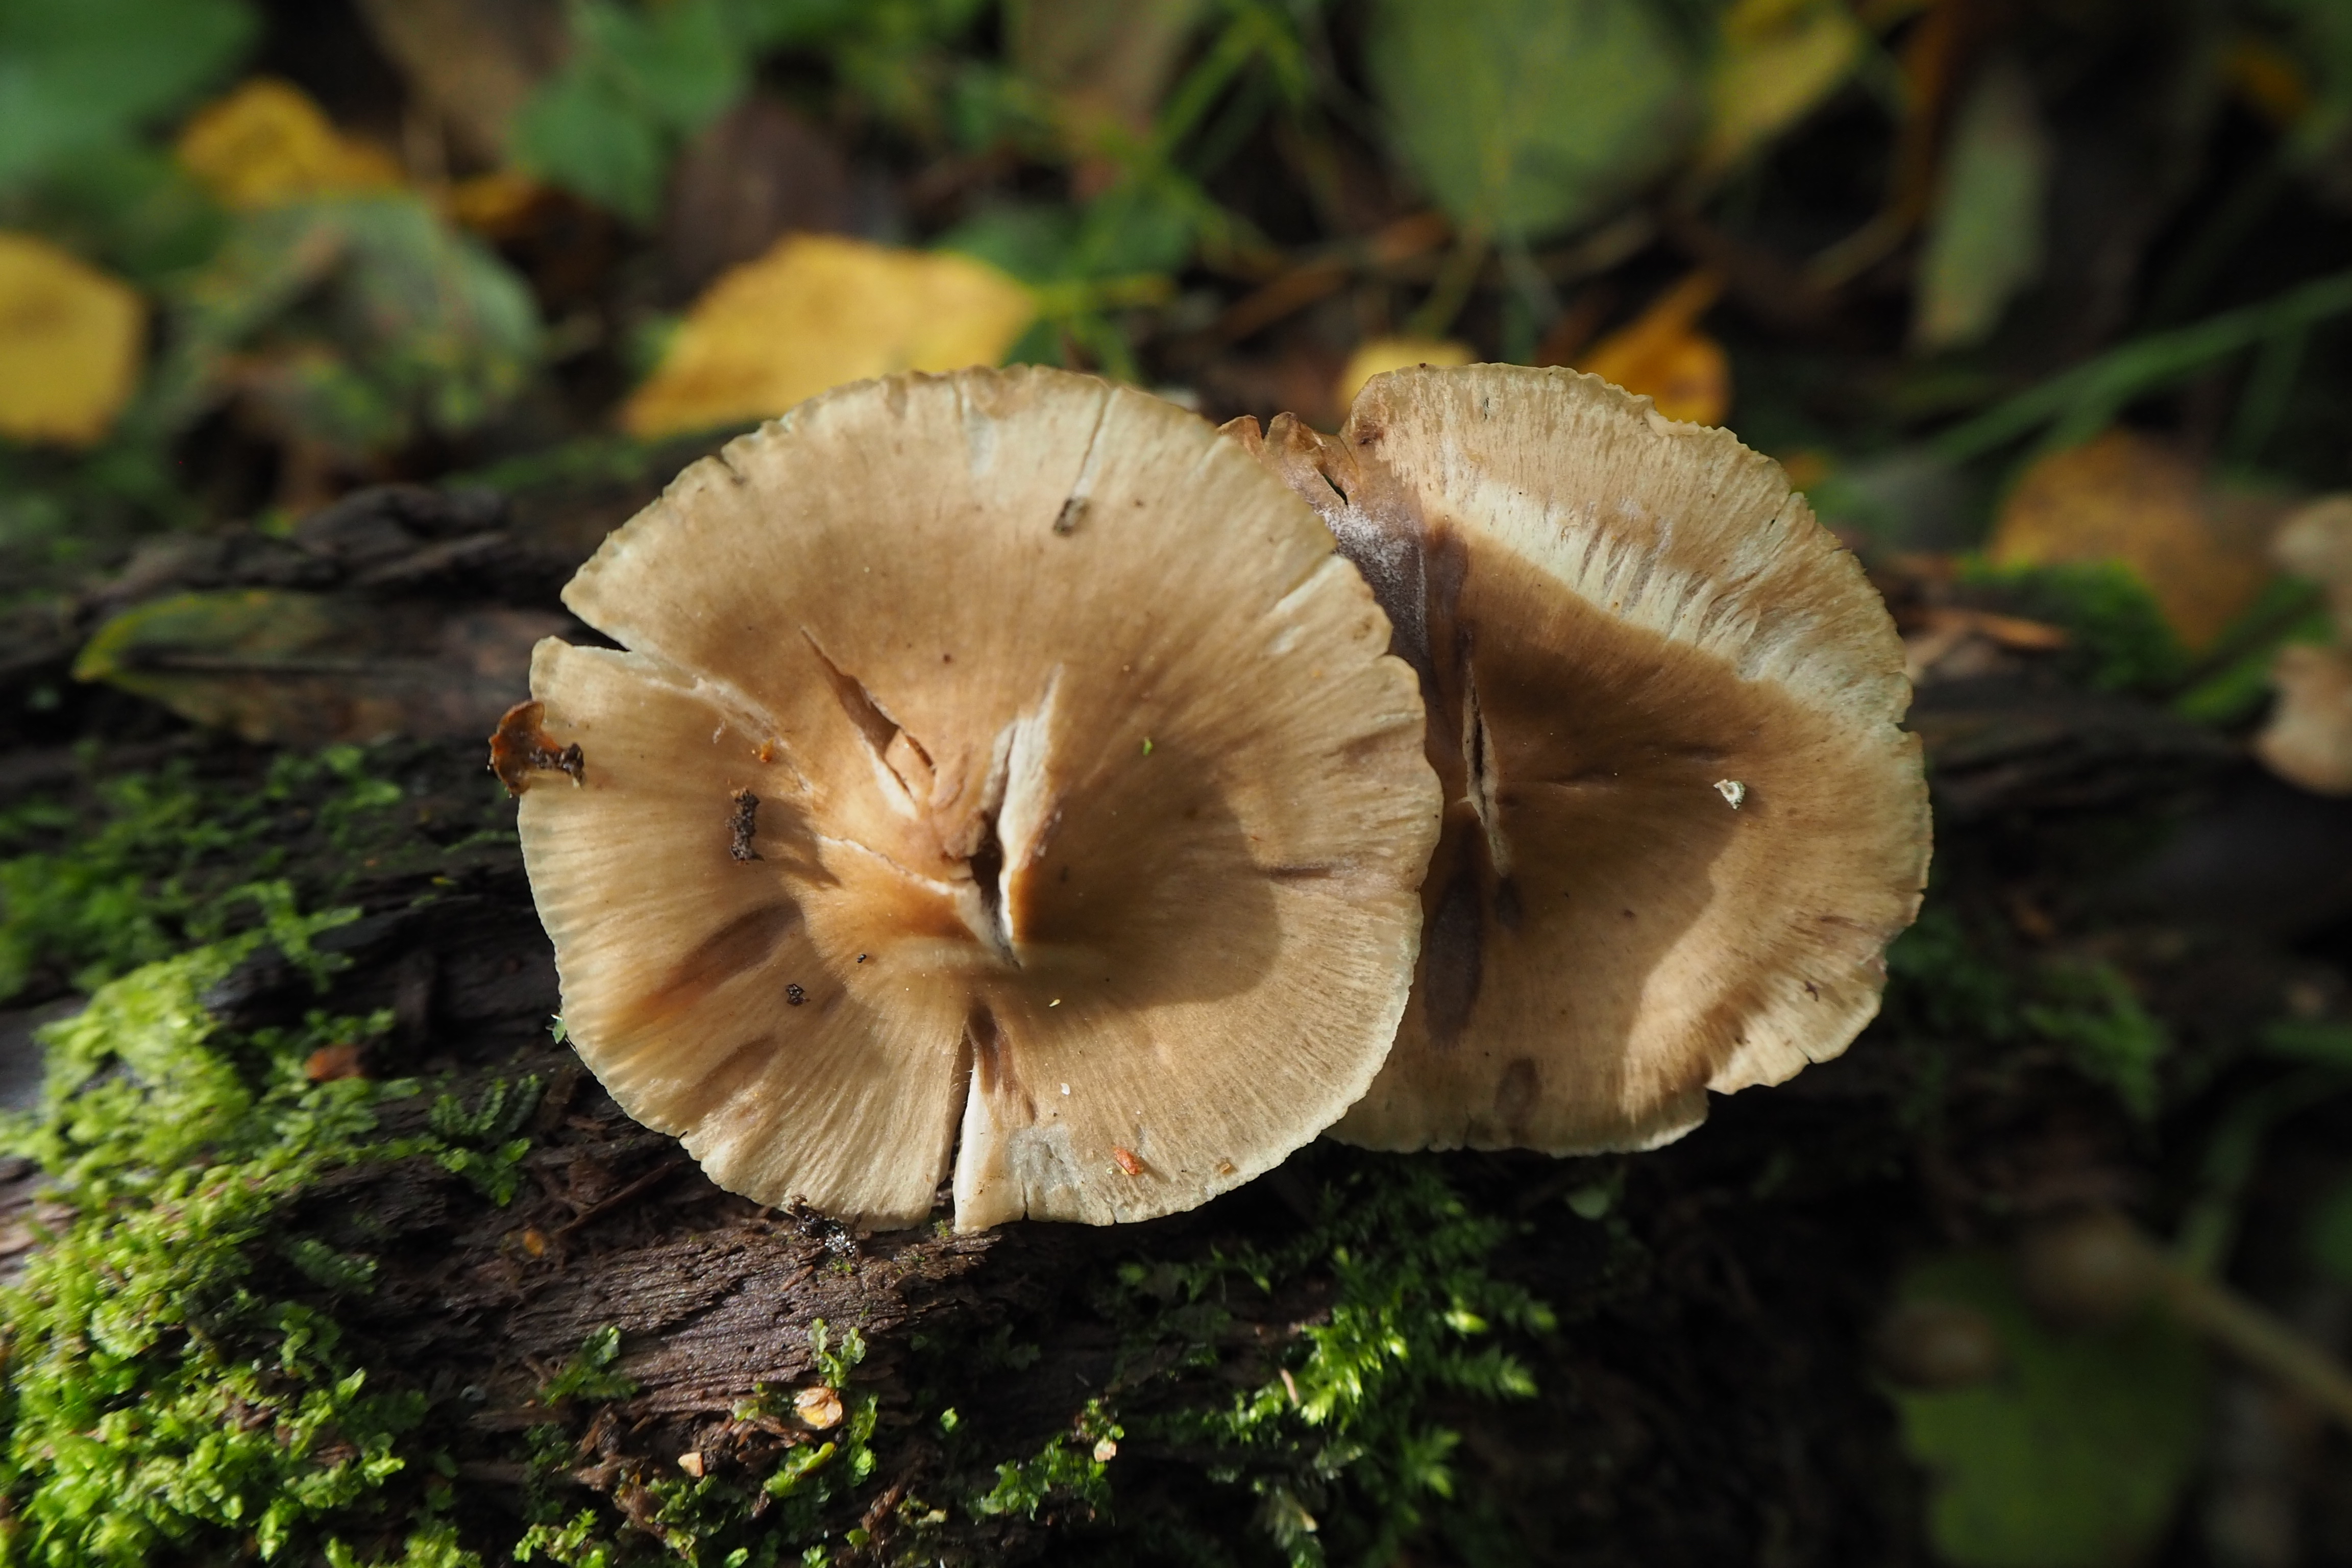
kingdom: Fungi
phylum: Basidiomycota
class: Agaricomycetes
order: Agaricales
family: Mycenaceae
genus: Mycena
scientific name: Mycena galericulata
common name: Bonnet mycena
